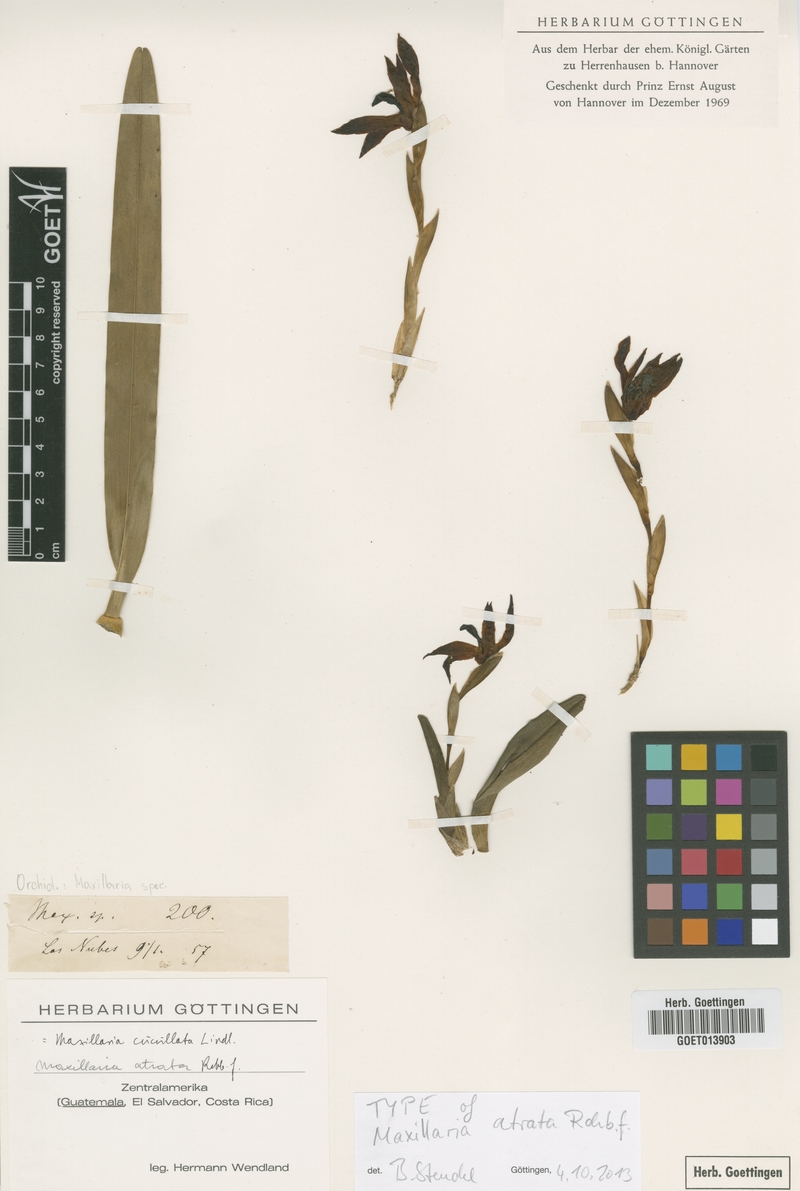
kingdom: Plantae
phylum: Tracheophyta
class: Liliopsida
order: Asparagales
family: Orchidaceae
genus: Maxillaria
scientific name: Maxillaria cucullata
